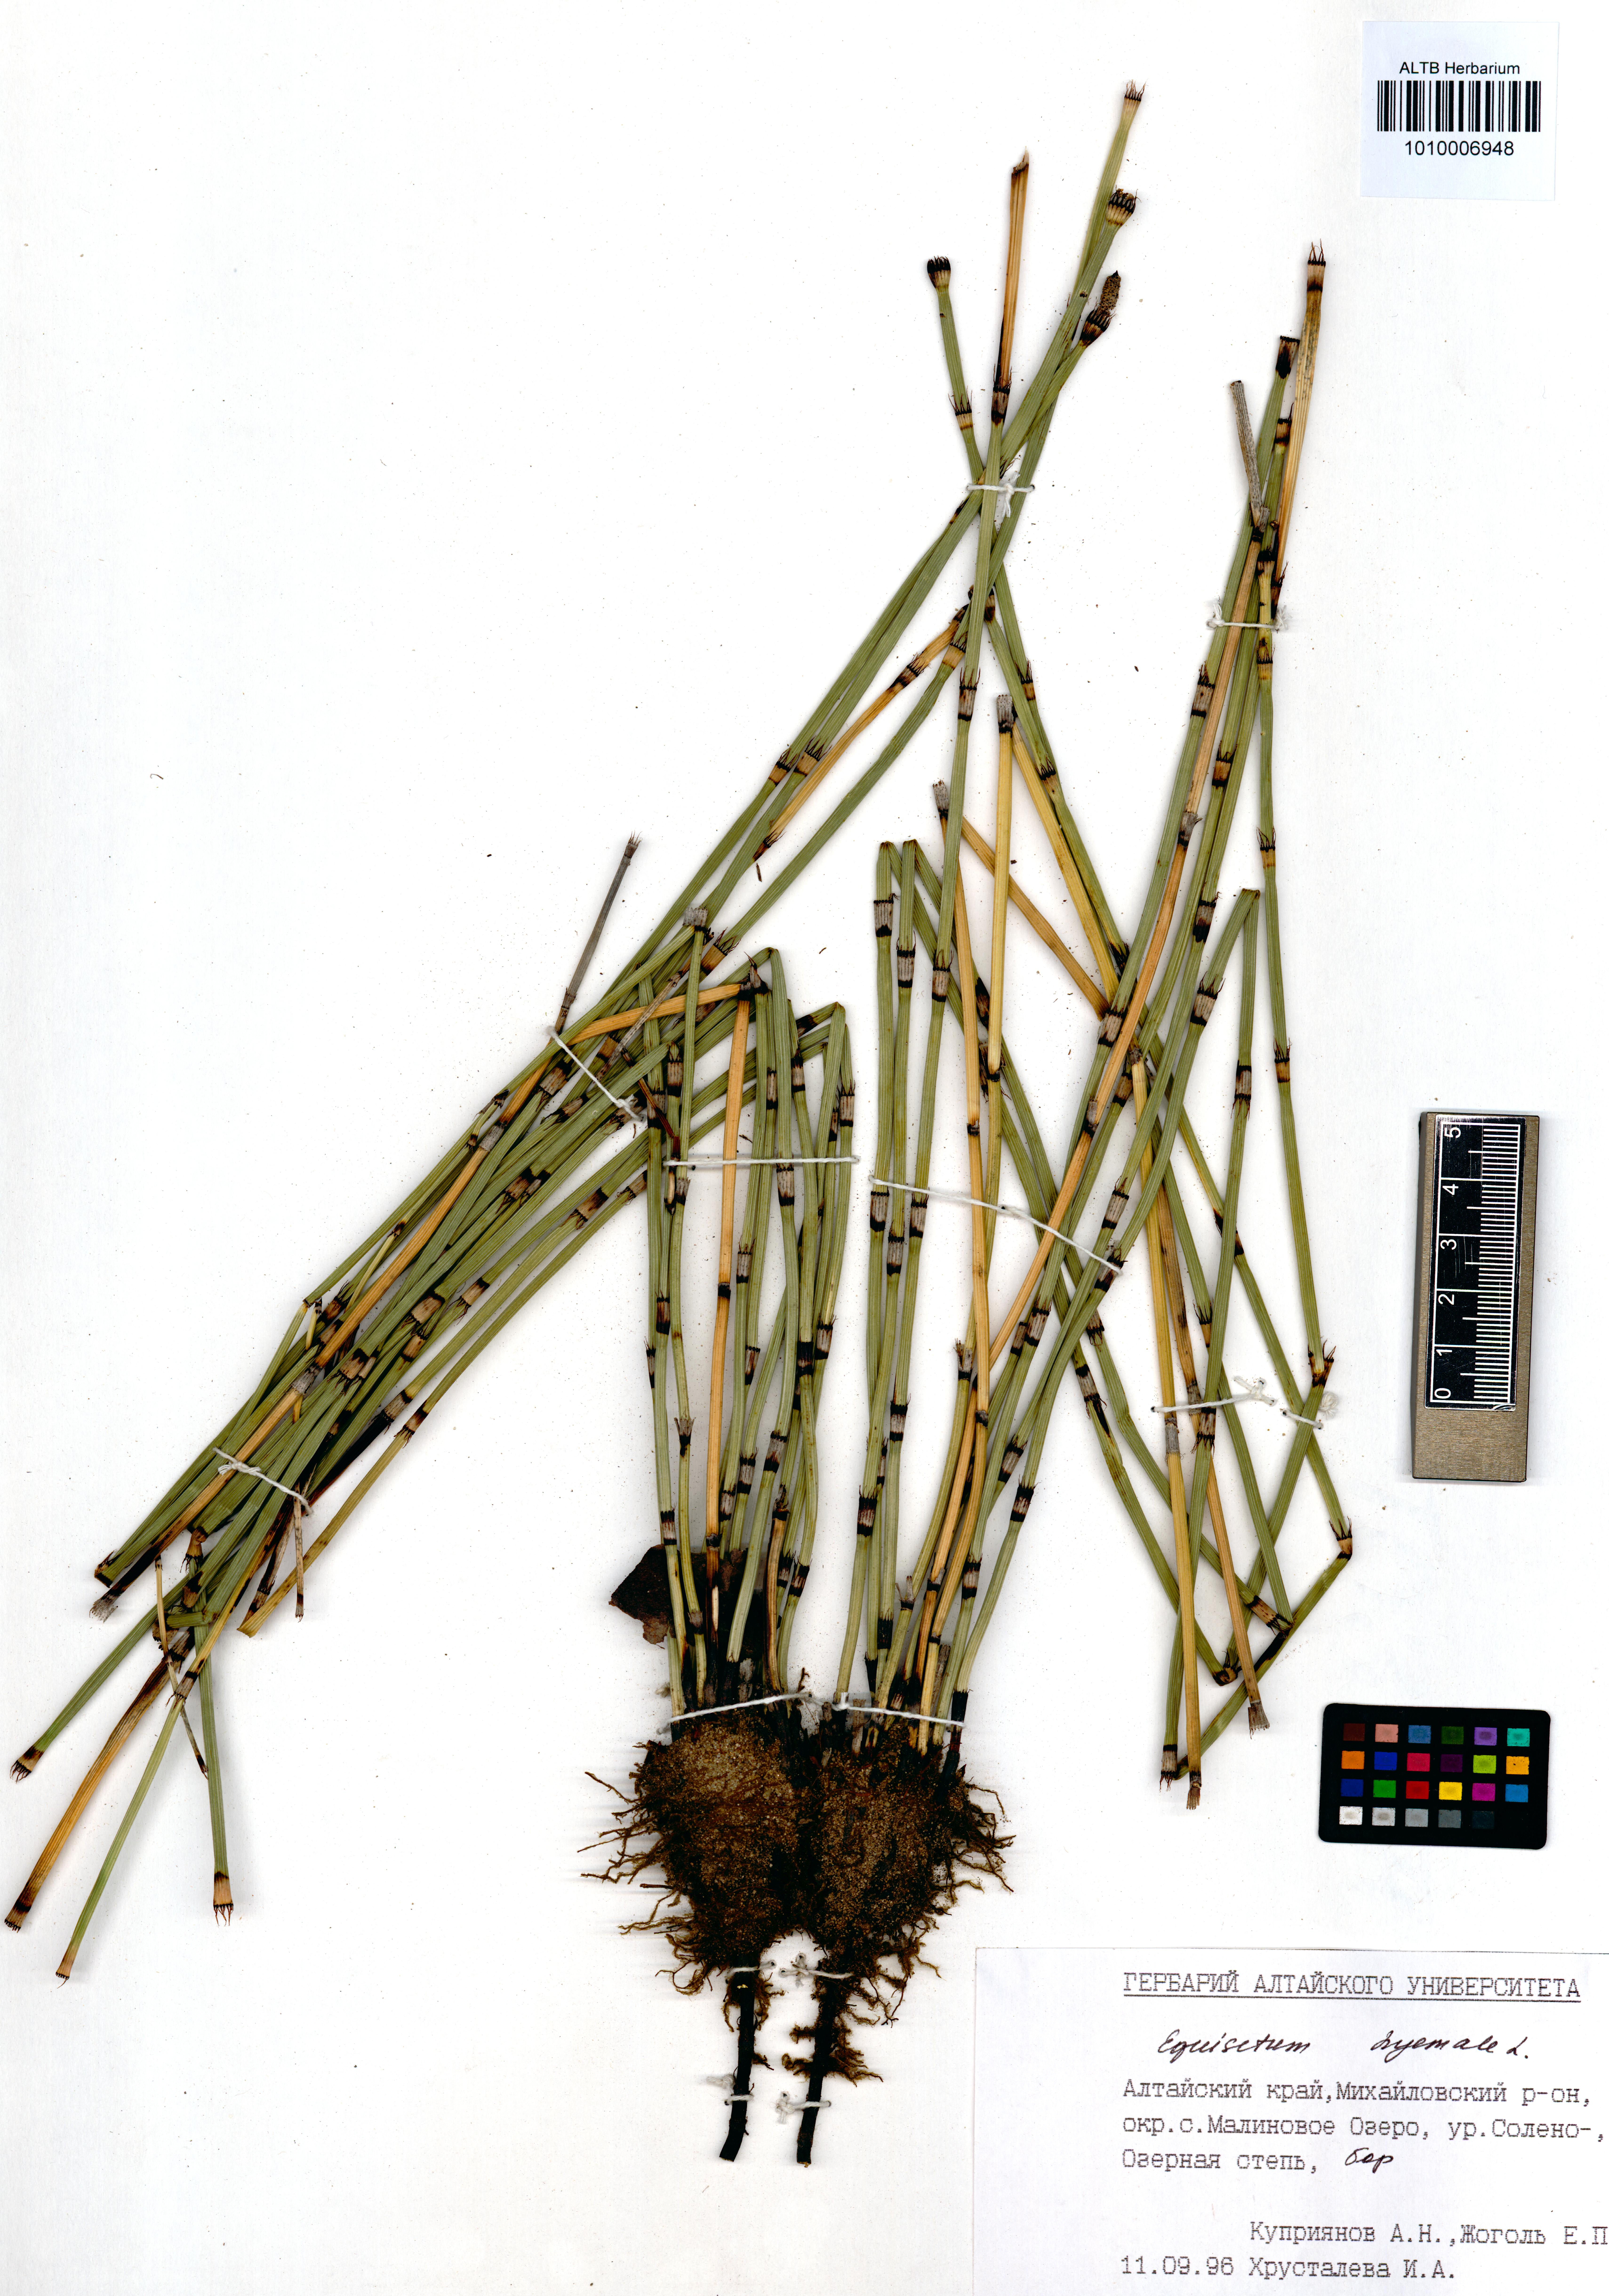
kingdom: Plantae
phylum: Tracheophyta
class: Polypodiopsida
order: Equisetales
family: Equisetaceae
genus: Equisetum
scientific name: Equisetum hyemale
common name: Rough horsetail
